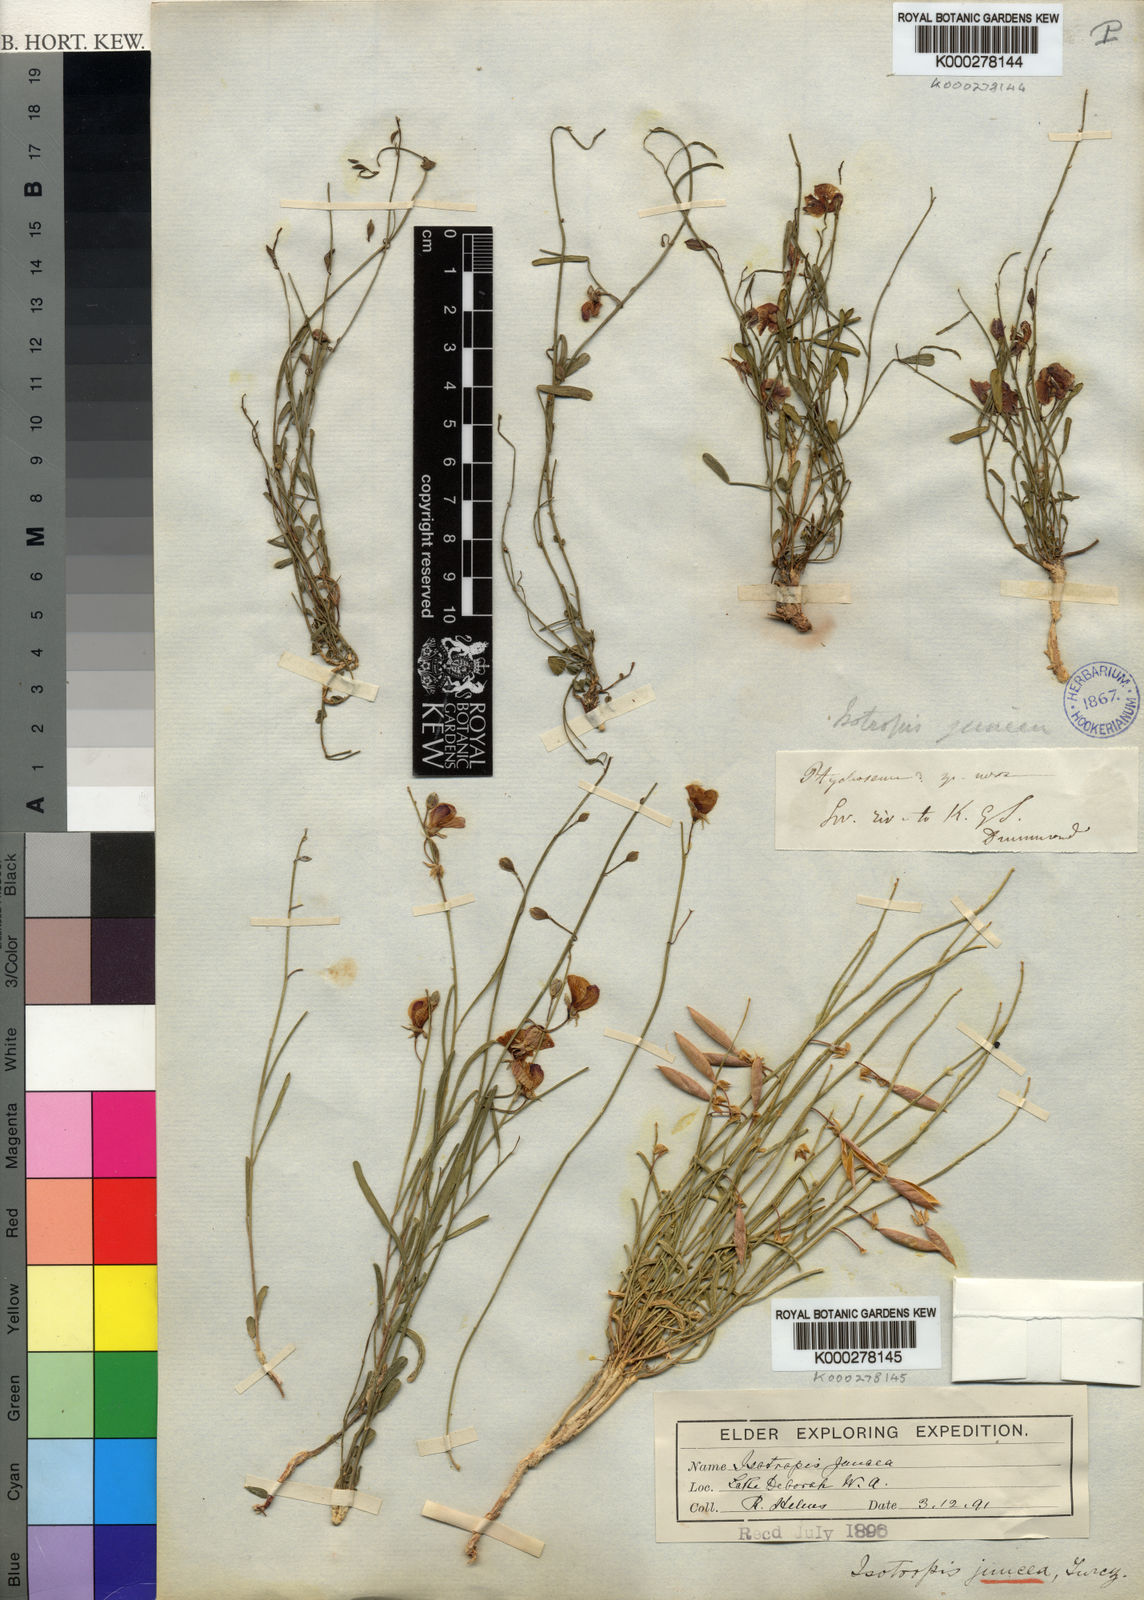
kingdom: Plantae
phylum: Tracheophyta
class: Magnoliopsida
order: Fabales
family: Fabaceae
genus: Isotropis
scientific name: Isotropis juncea
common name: Slender lamb-poison
